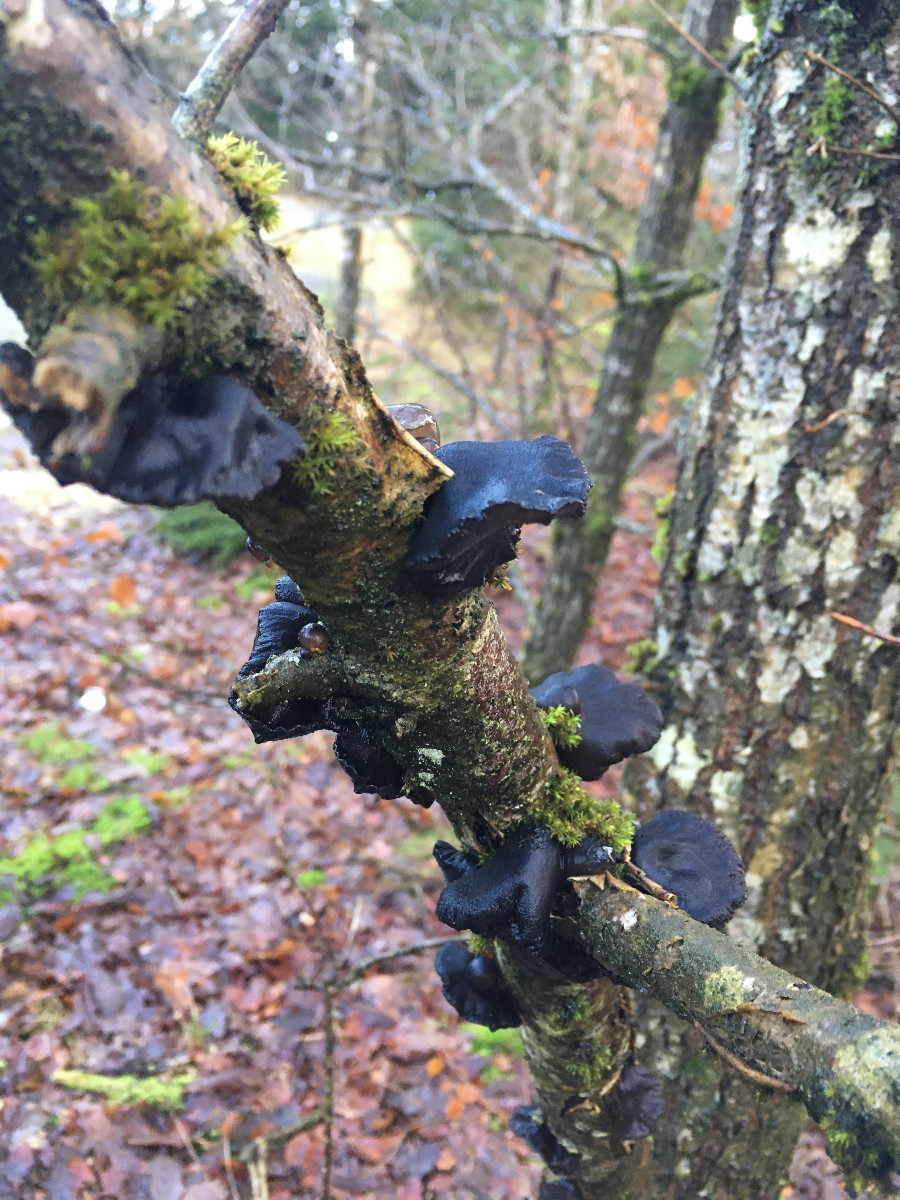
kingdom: Fungi
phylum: Basidiomycota
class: Agaricomycetes
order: Auriculariales
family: Auriculariaceae
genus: Exidia
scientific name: Exidia glandulosa
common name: ege-bævretop
